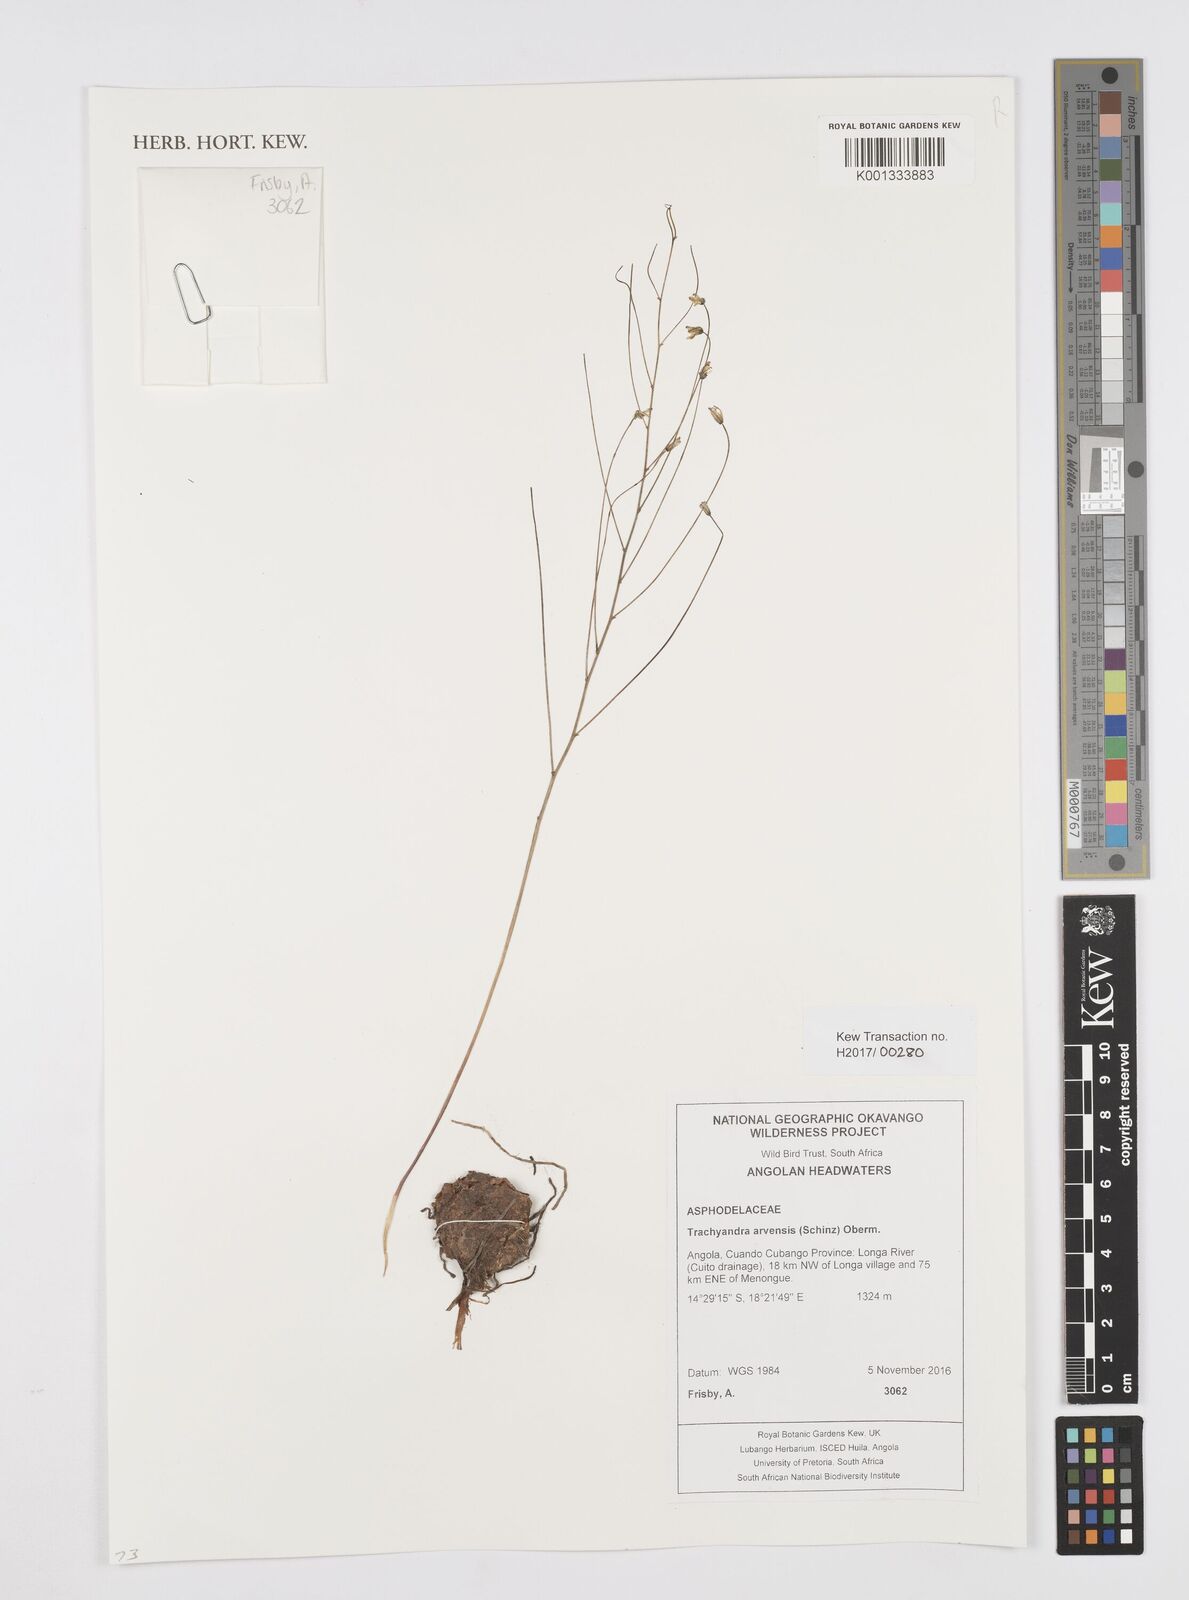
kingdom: Plantae
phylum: Tracheophyta
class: Liliopsida
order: Asparagales
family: Asphodelaceae
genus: Trachyandra
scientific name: Trachyandra arvensis
